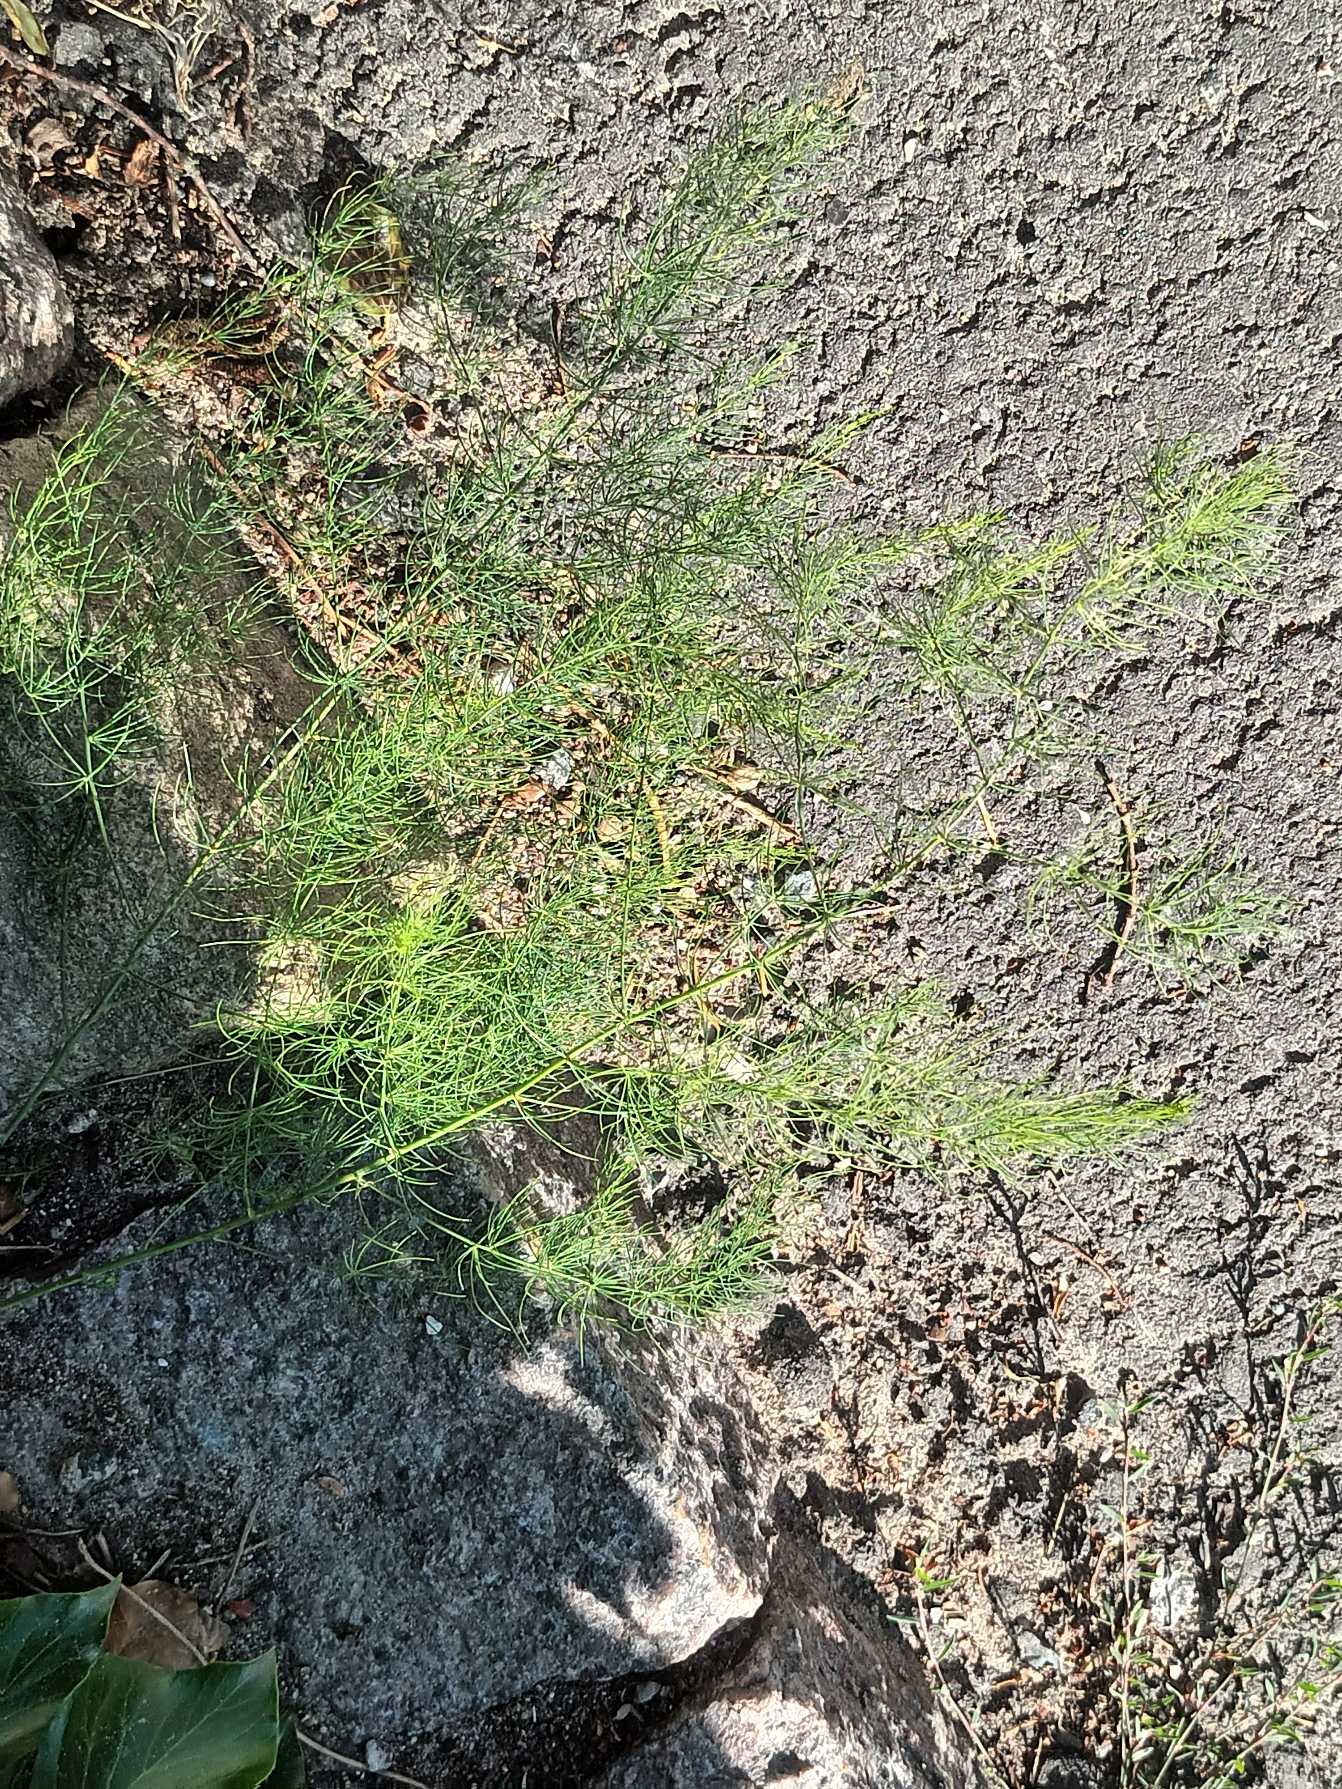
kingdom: Plantae
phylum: Tracheophyta
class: Liliopsida
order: Asparagales
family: Asparagaceae
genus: Asparagus
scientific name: Asparagus officinalis
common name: Asparges
